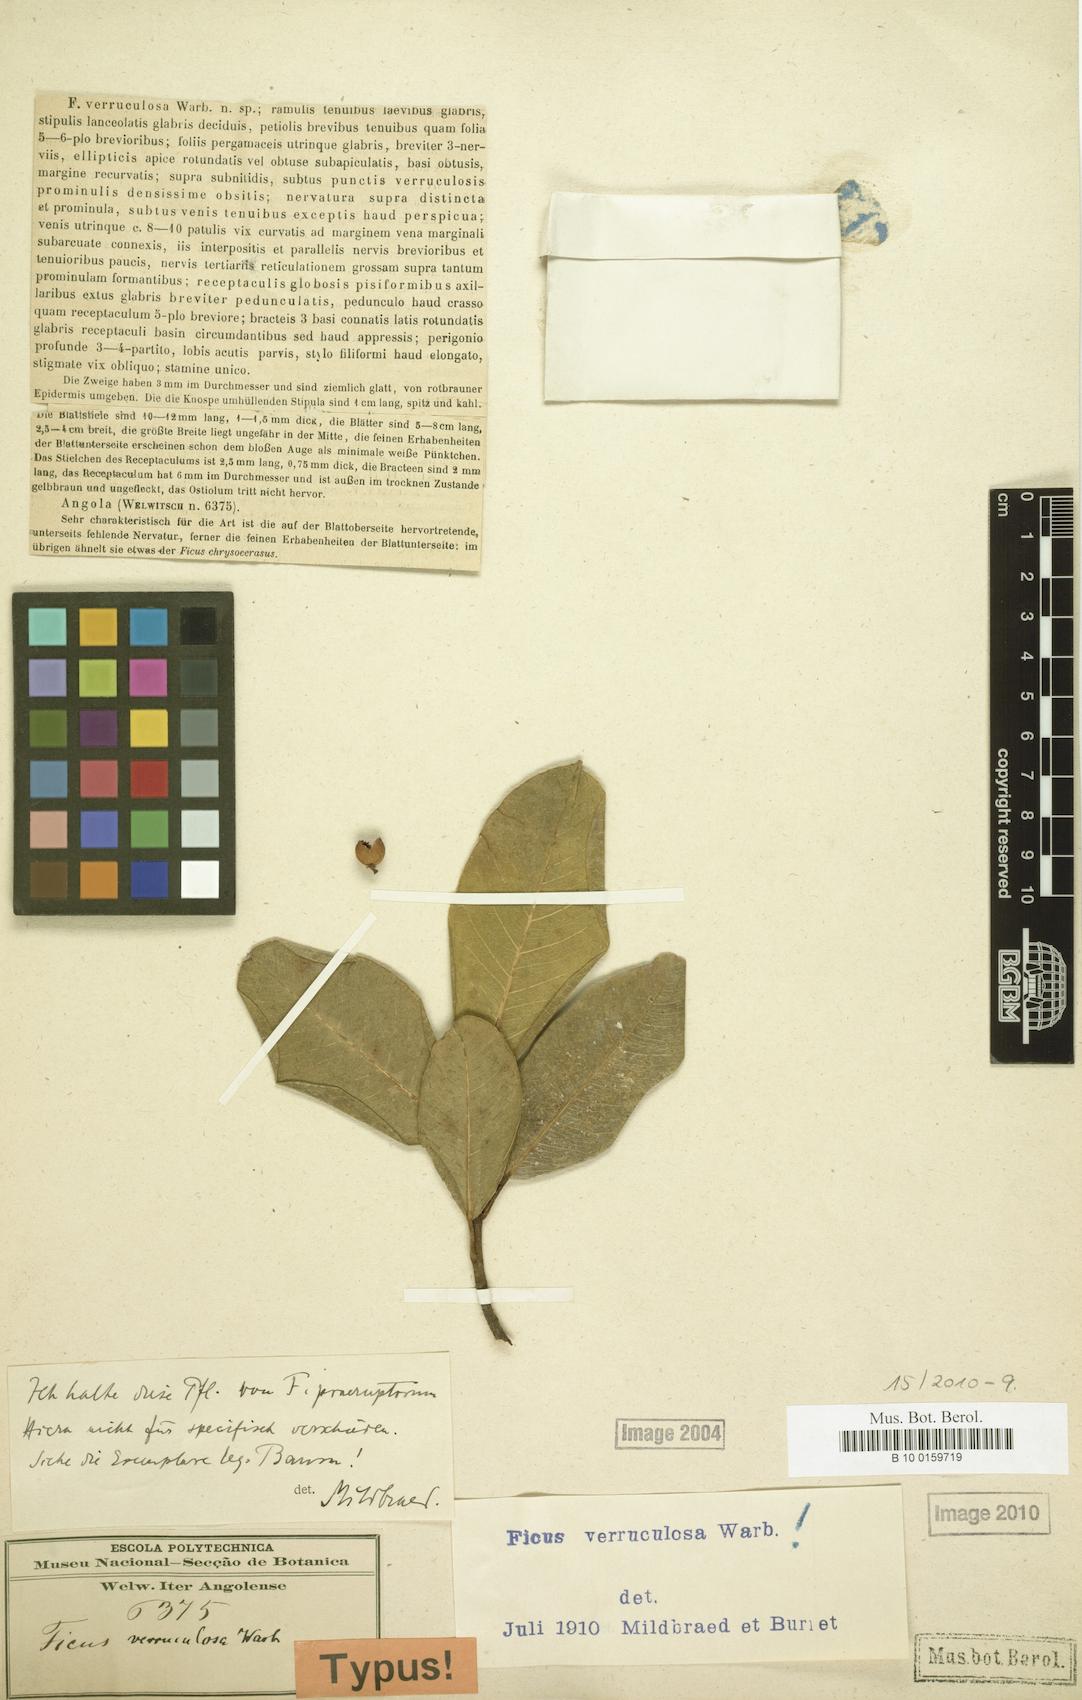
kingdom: Plantae
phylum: Tracheophyta
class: Magnoliopsida
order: Rosales
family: Moraceae
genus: Ficus
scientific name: Ficus verruculosa
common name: Water fig
